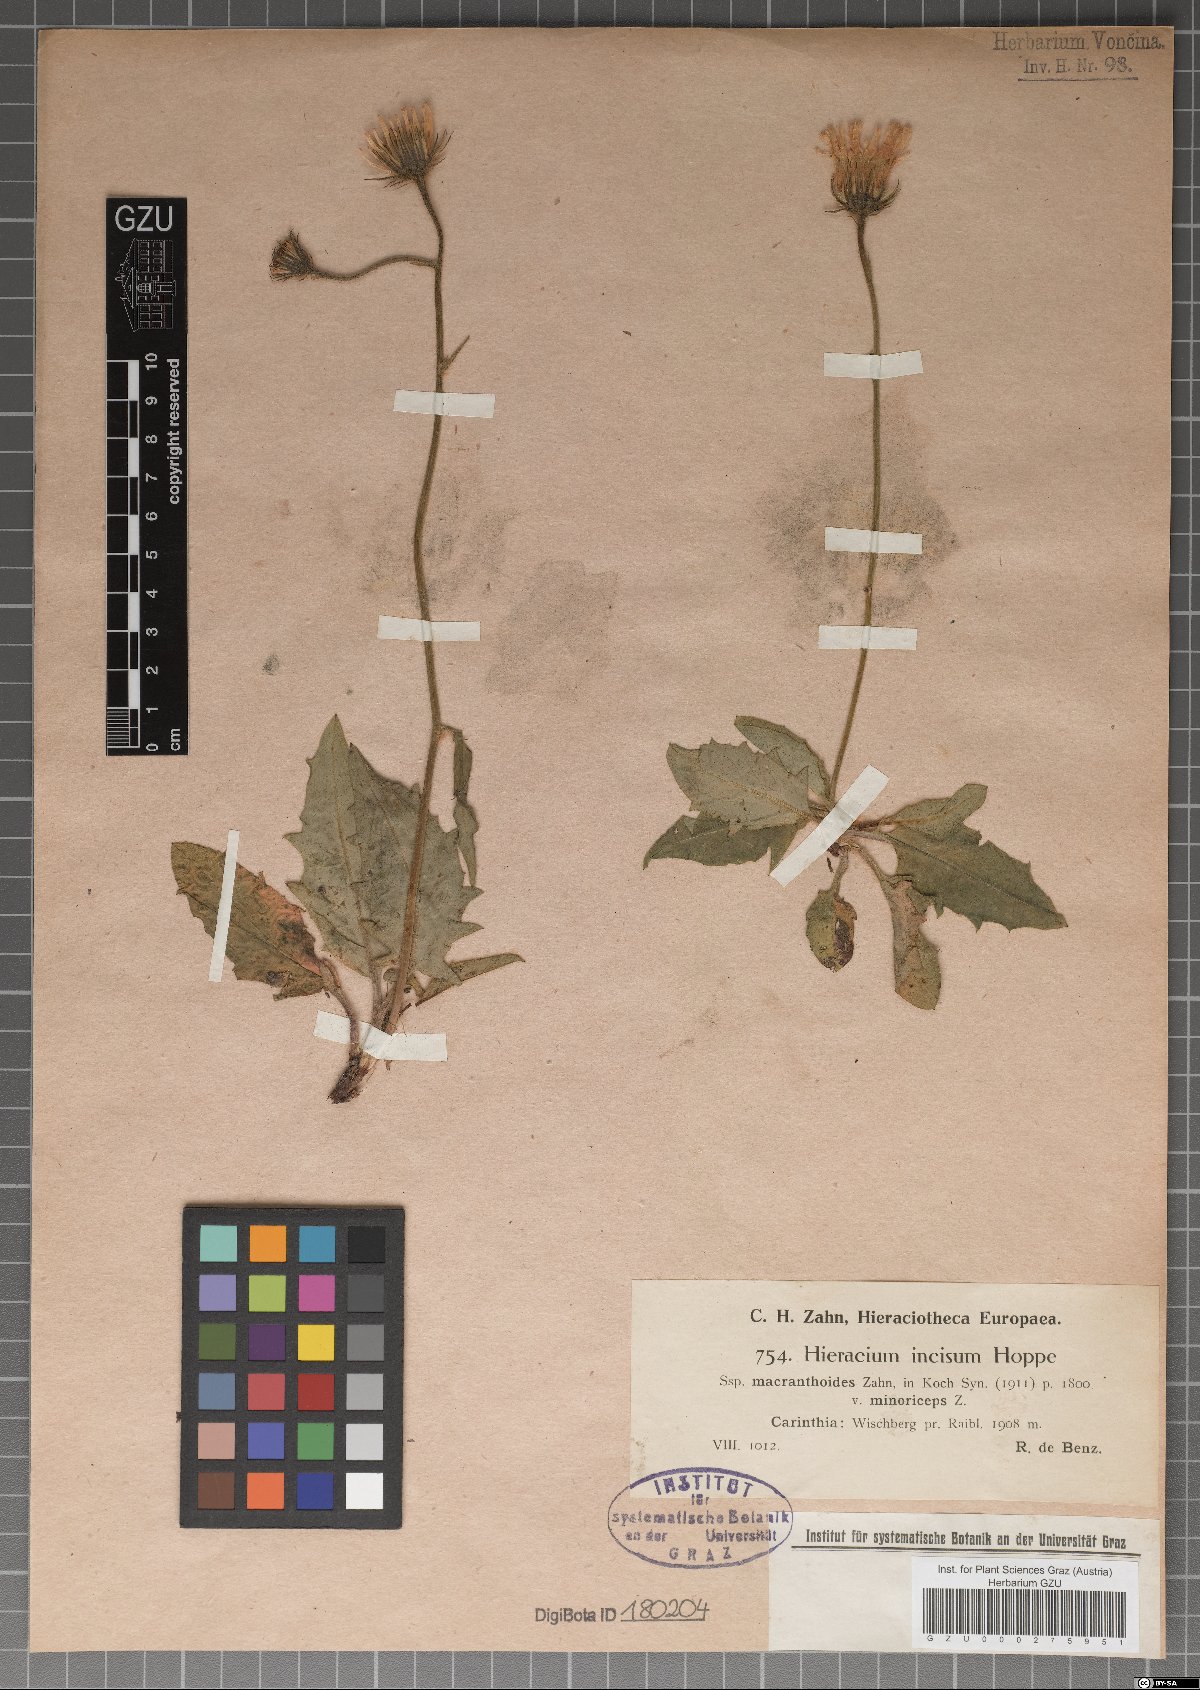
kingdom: Plantae
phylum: Tracheophyta
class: Magnoliopsida
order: Asterales
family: Asteraceae
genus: Hieracium
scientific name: Hieracium incisum
